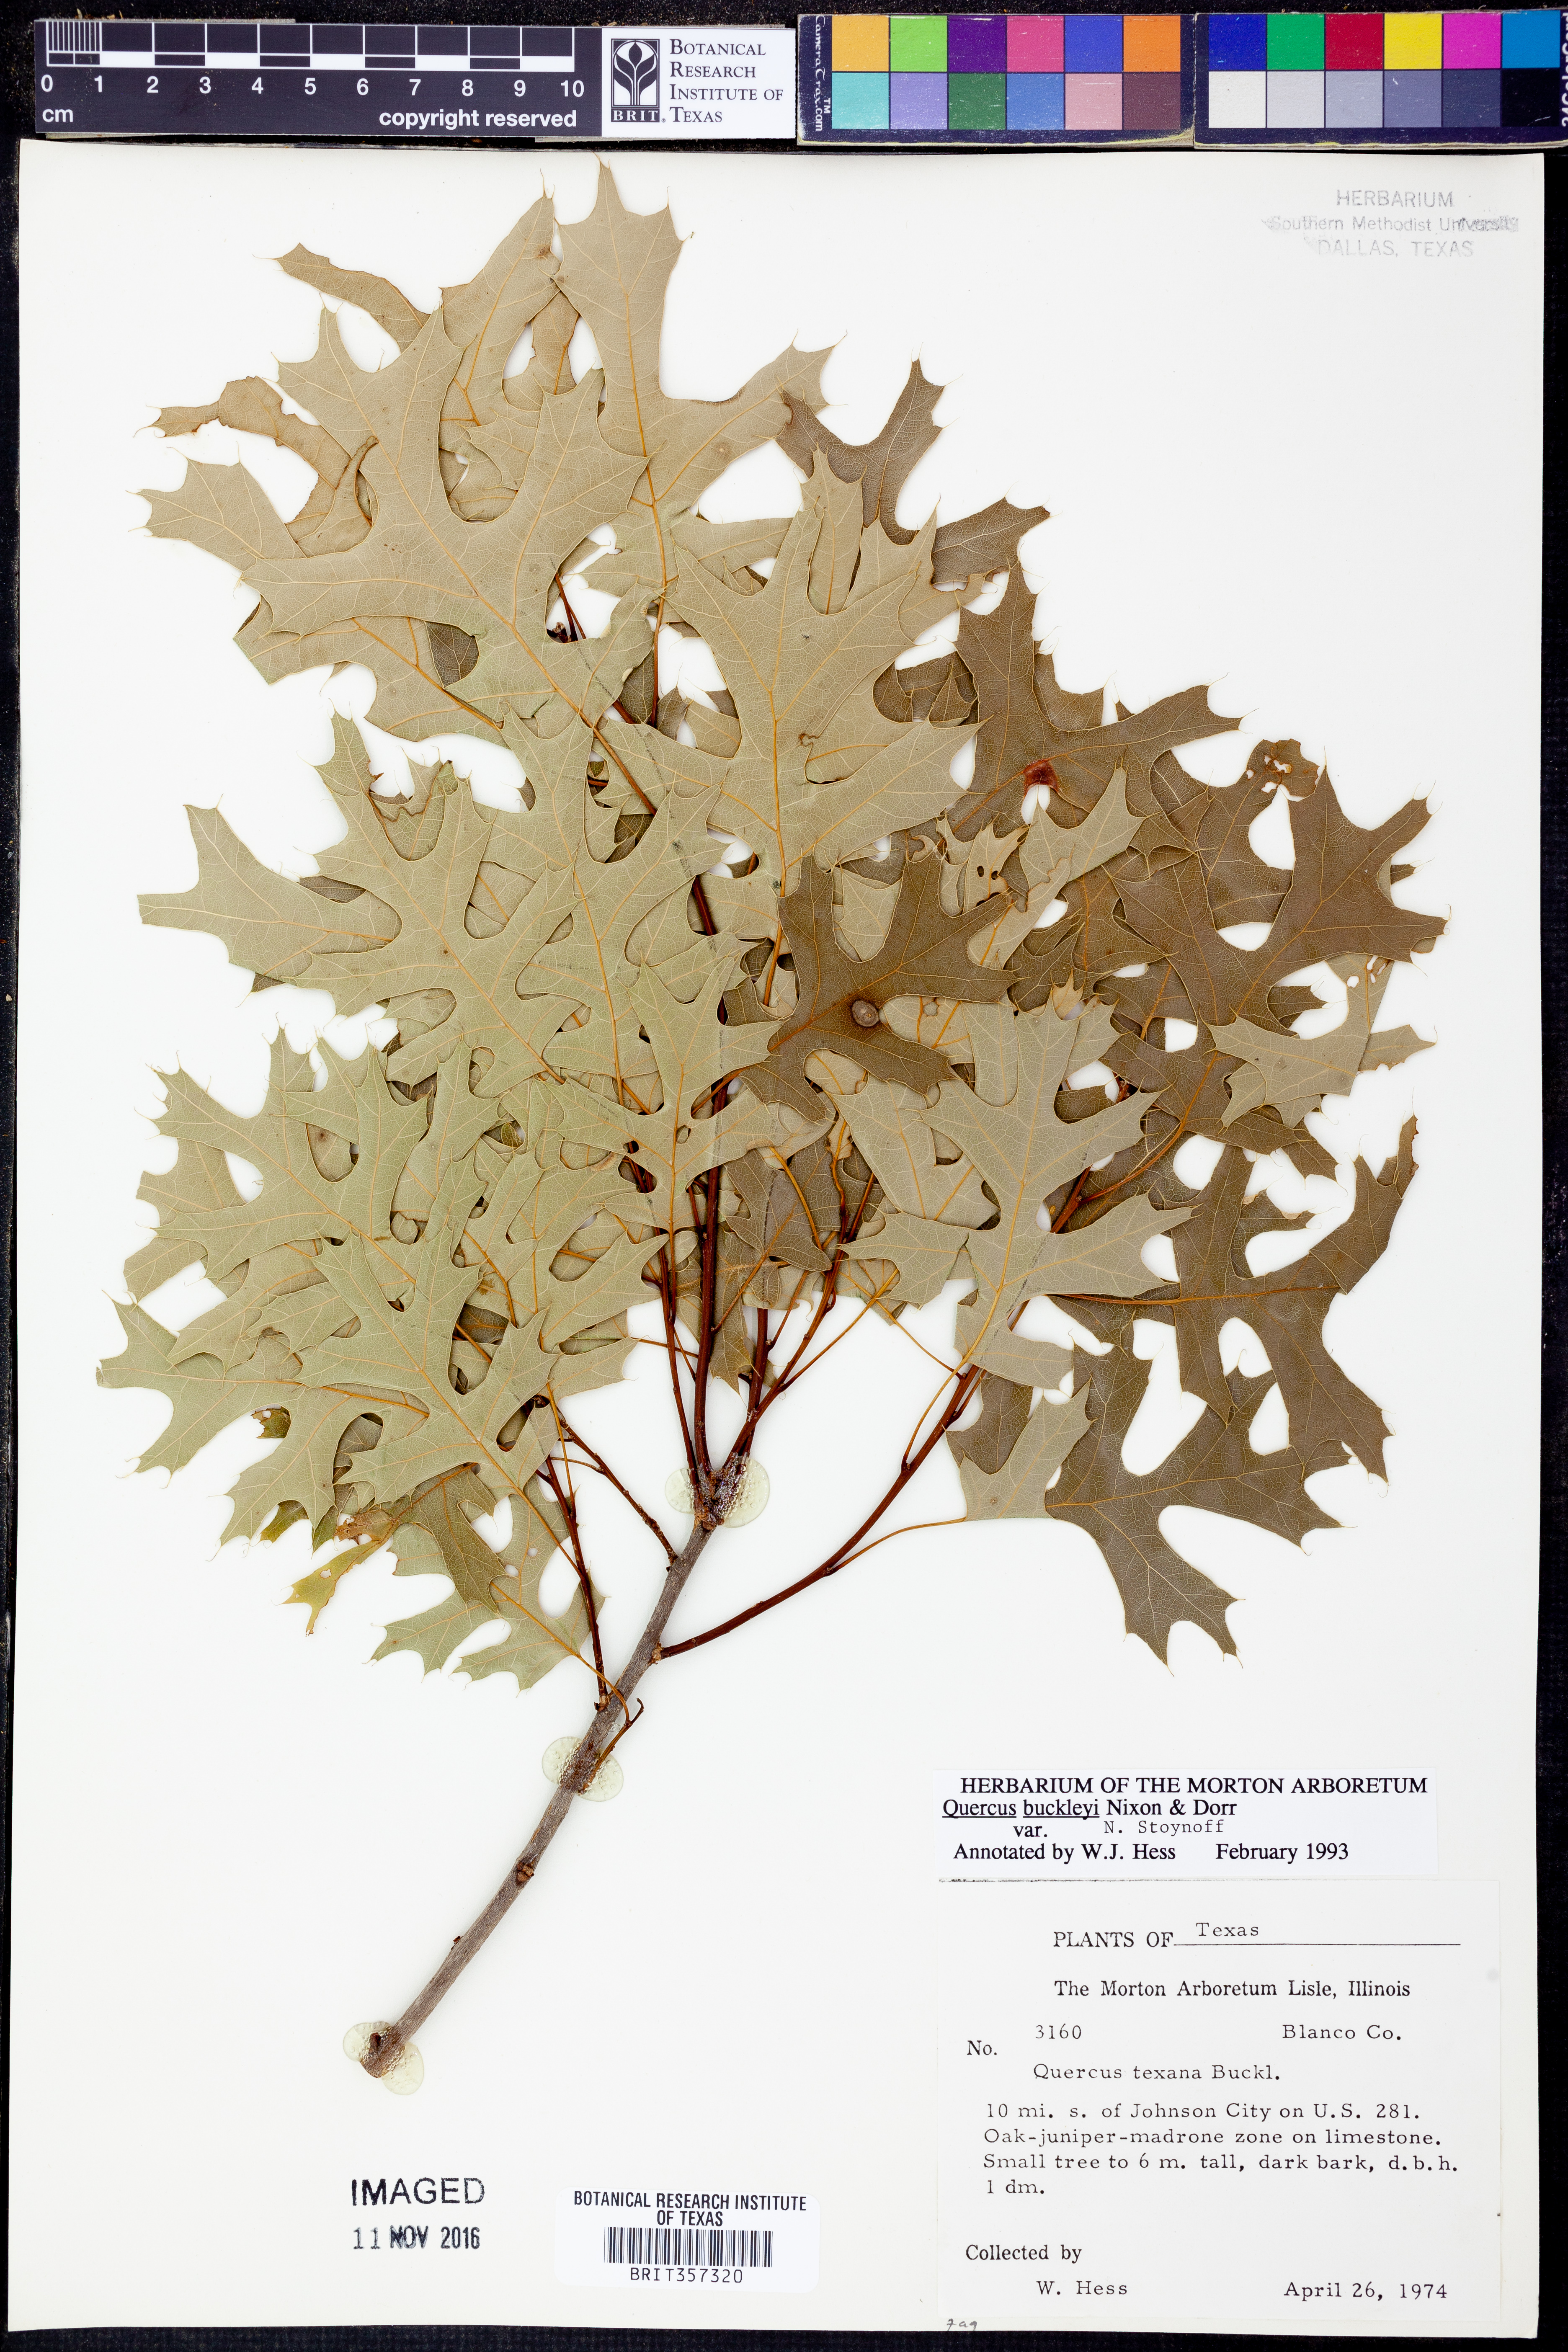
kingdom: Plantae
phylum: Tracheophyta
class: Magnoliopsida
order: Fagales
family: Fagaceae
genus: Quercus
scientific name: Quercus buckleyi
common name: Buckley oak
